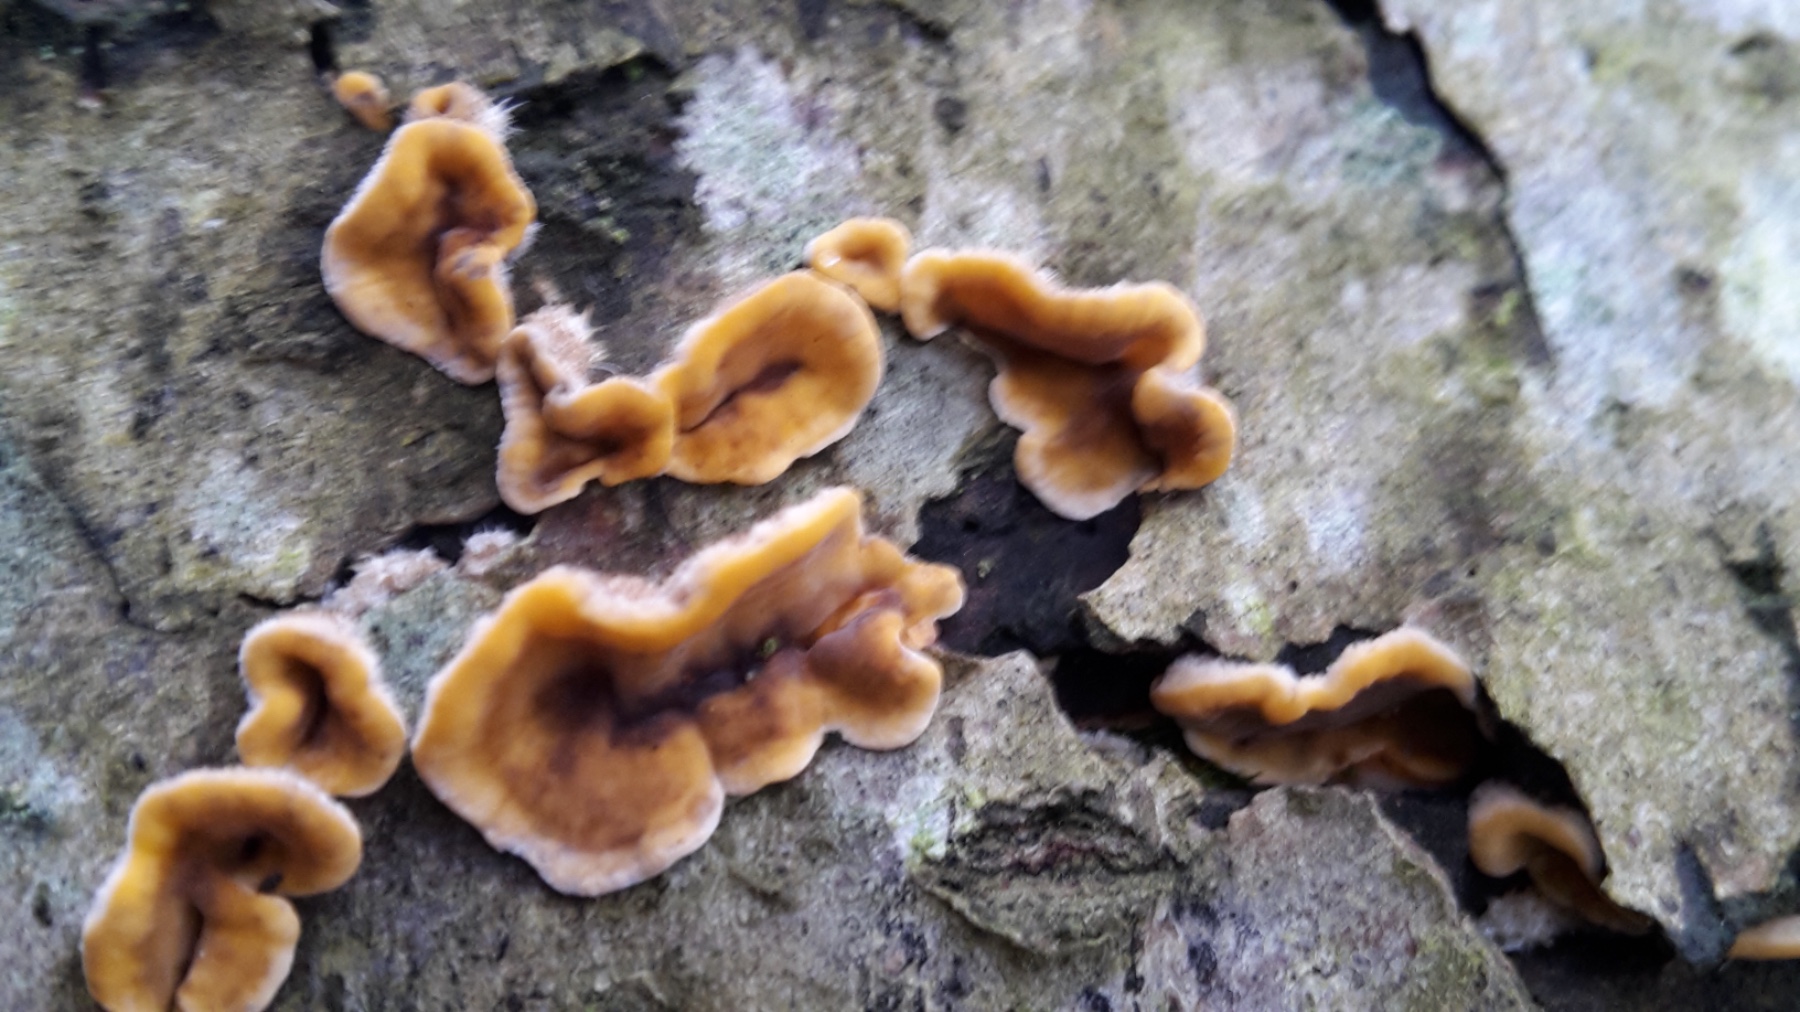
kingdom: Fungi
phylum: Basidiomycota
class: Agaricomycetes
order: Russulales
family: Stereaceae
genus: Stereum
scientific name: Stereum hirsutum
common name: håret lædersvamp
